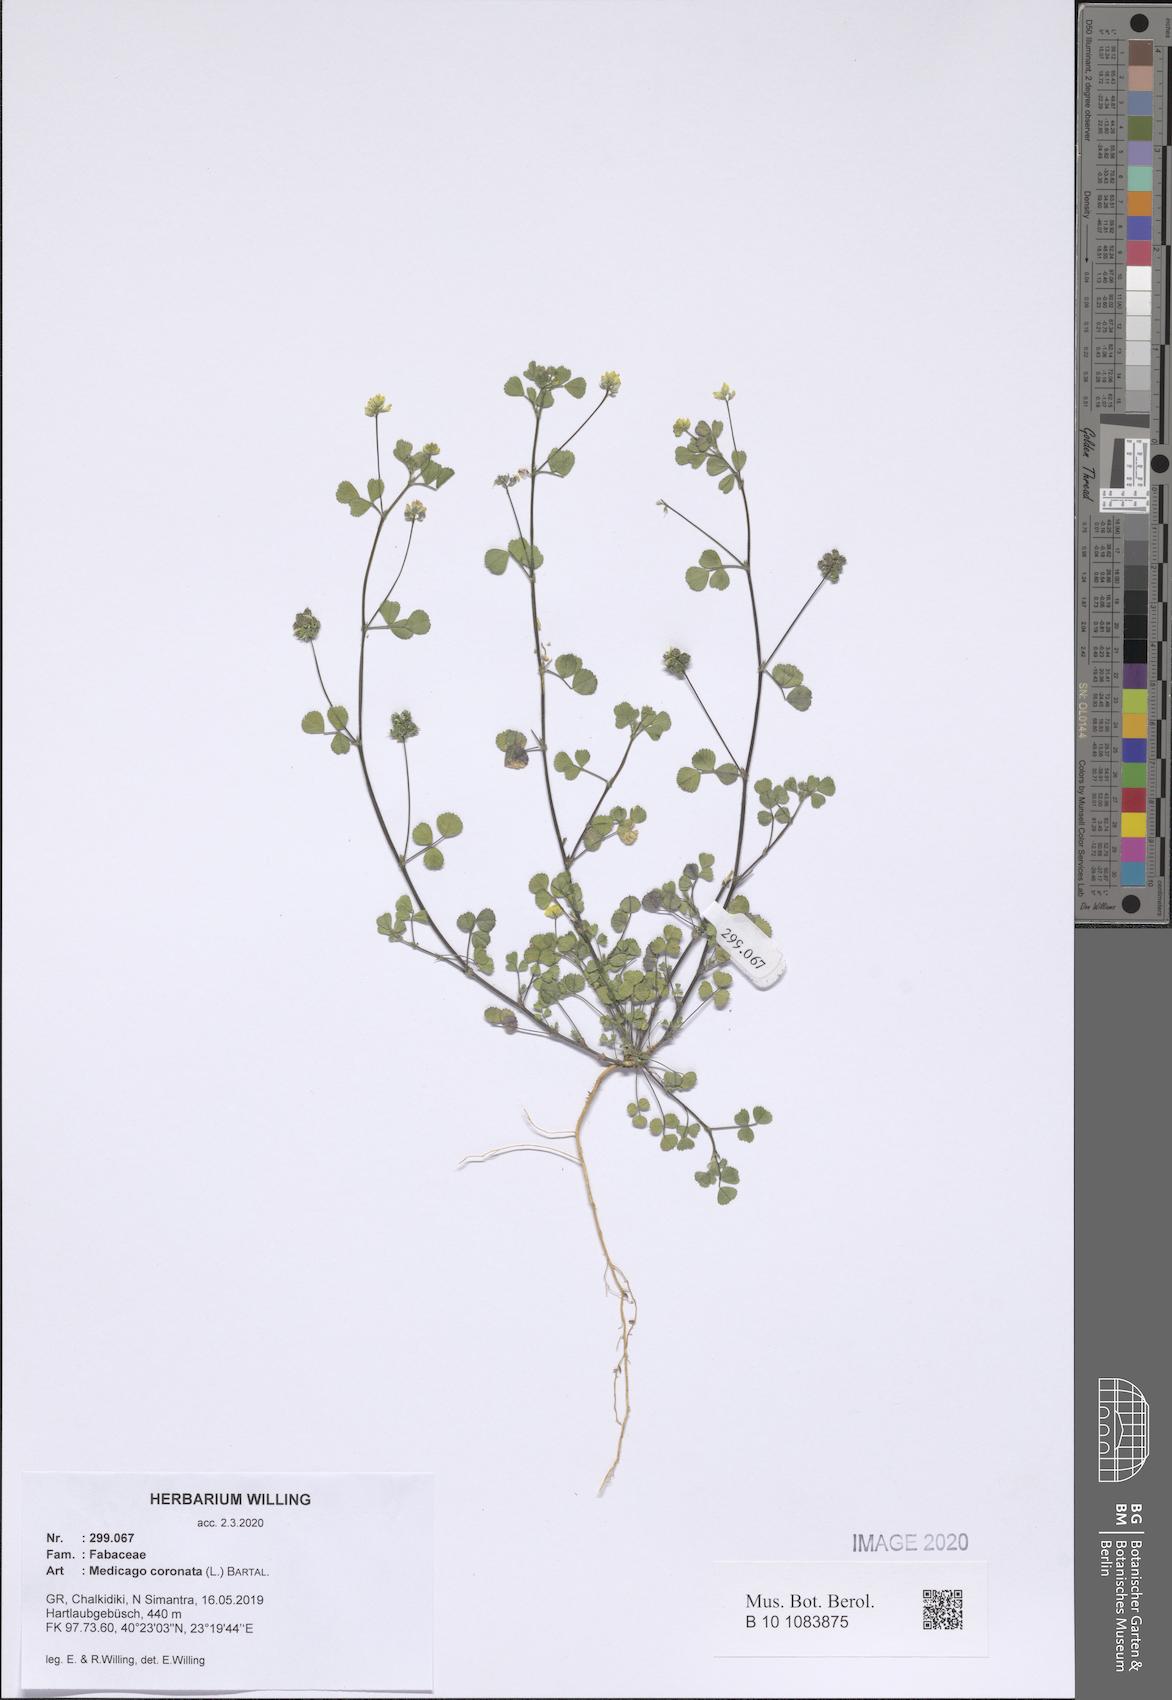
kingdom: Plantae
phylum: Tracheophyta
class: Magnoliopsida
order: Fabales
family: Fabaceae
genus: Medicago
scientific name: Medicago coronata
